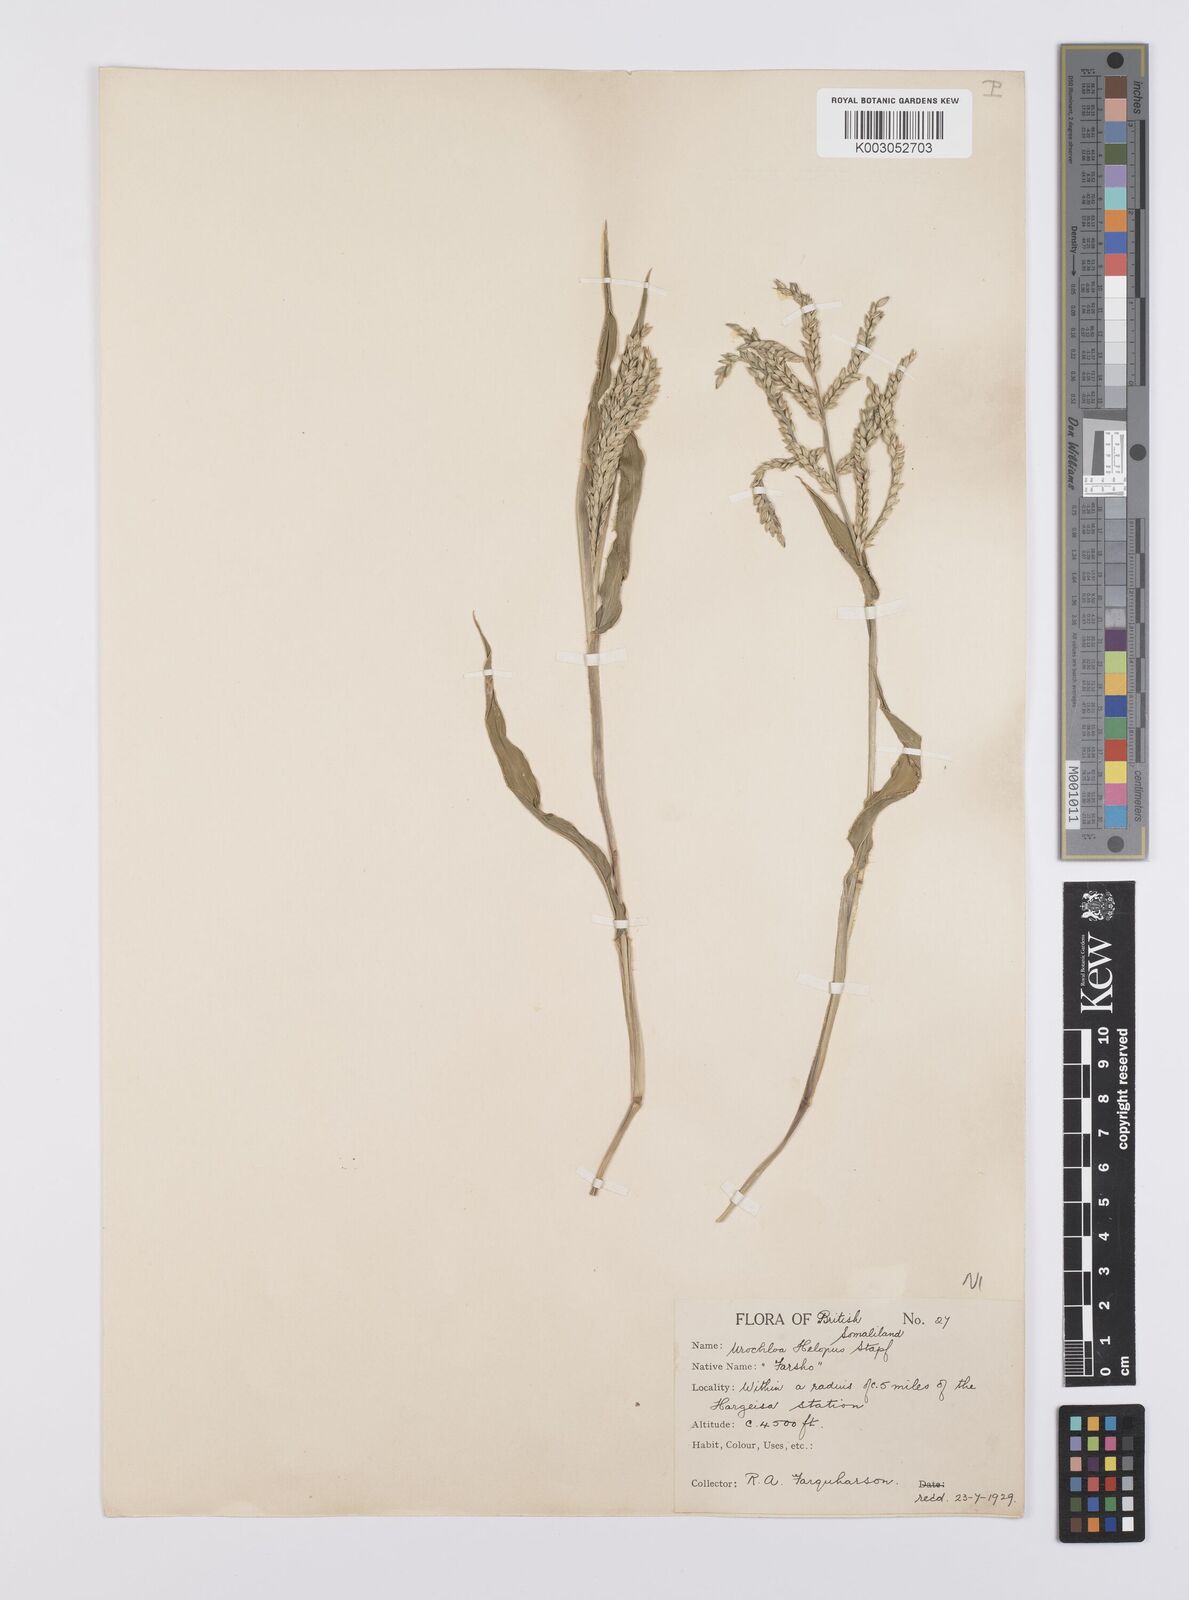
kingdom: Plantae
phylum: Tracheophyta
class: Liliopsida
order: Poales
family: Poaceae
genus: Urochloa
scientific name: Urochloa panicoides
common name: Sharp-flowered signal-grass
